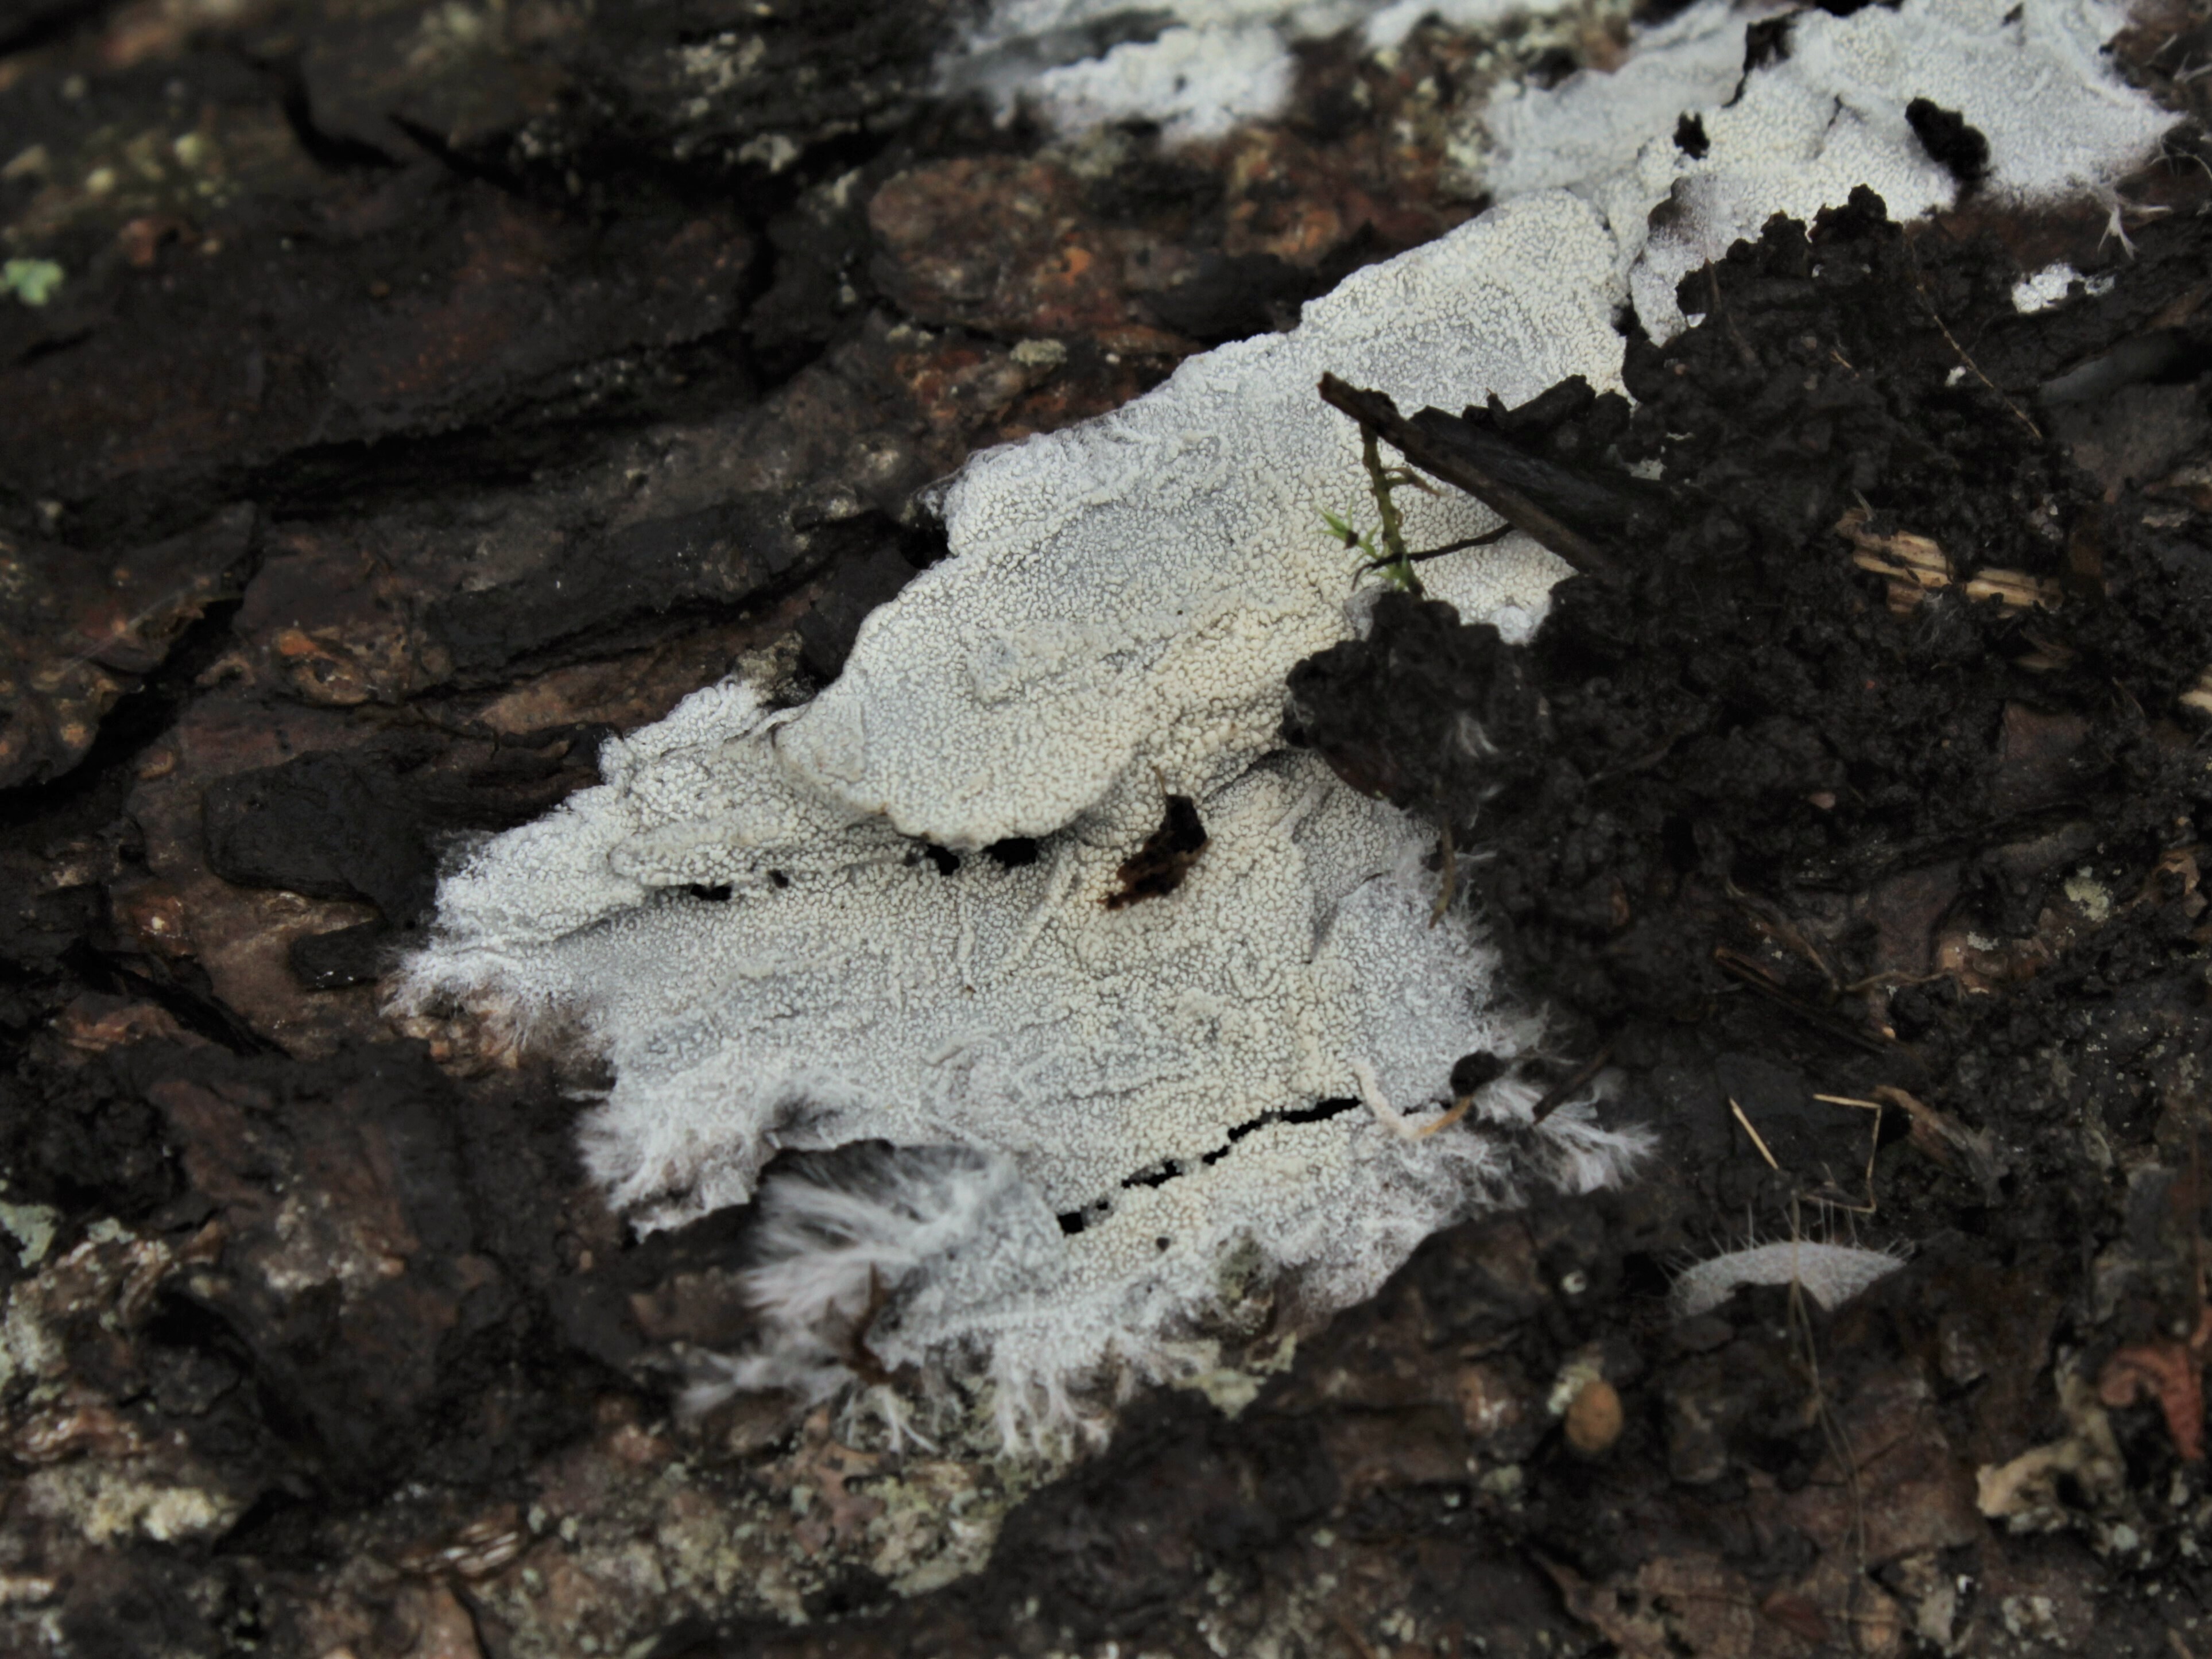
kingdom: Fungi
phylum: Basidiomycota
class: Agaricomycetes
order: Trechisporales
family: Sistotremataceae
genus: Trechispora
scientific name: Trechispora farinacea
